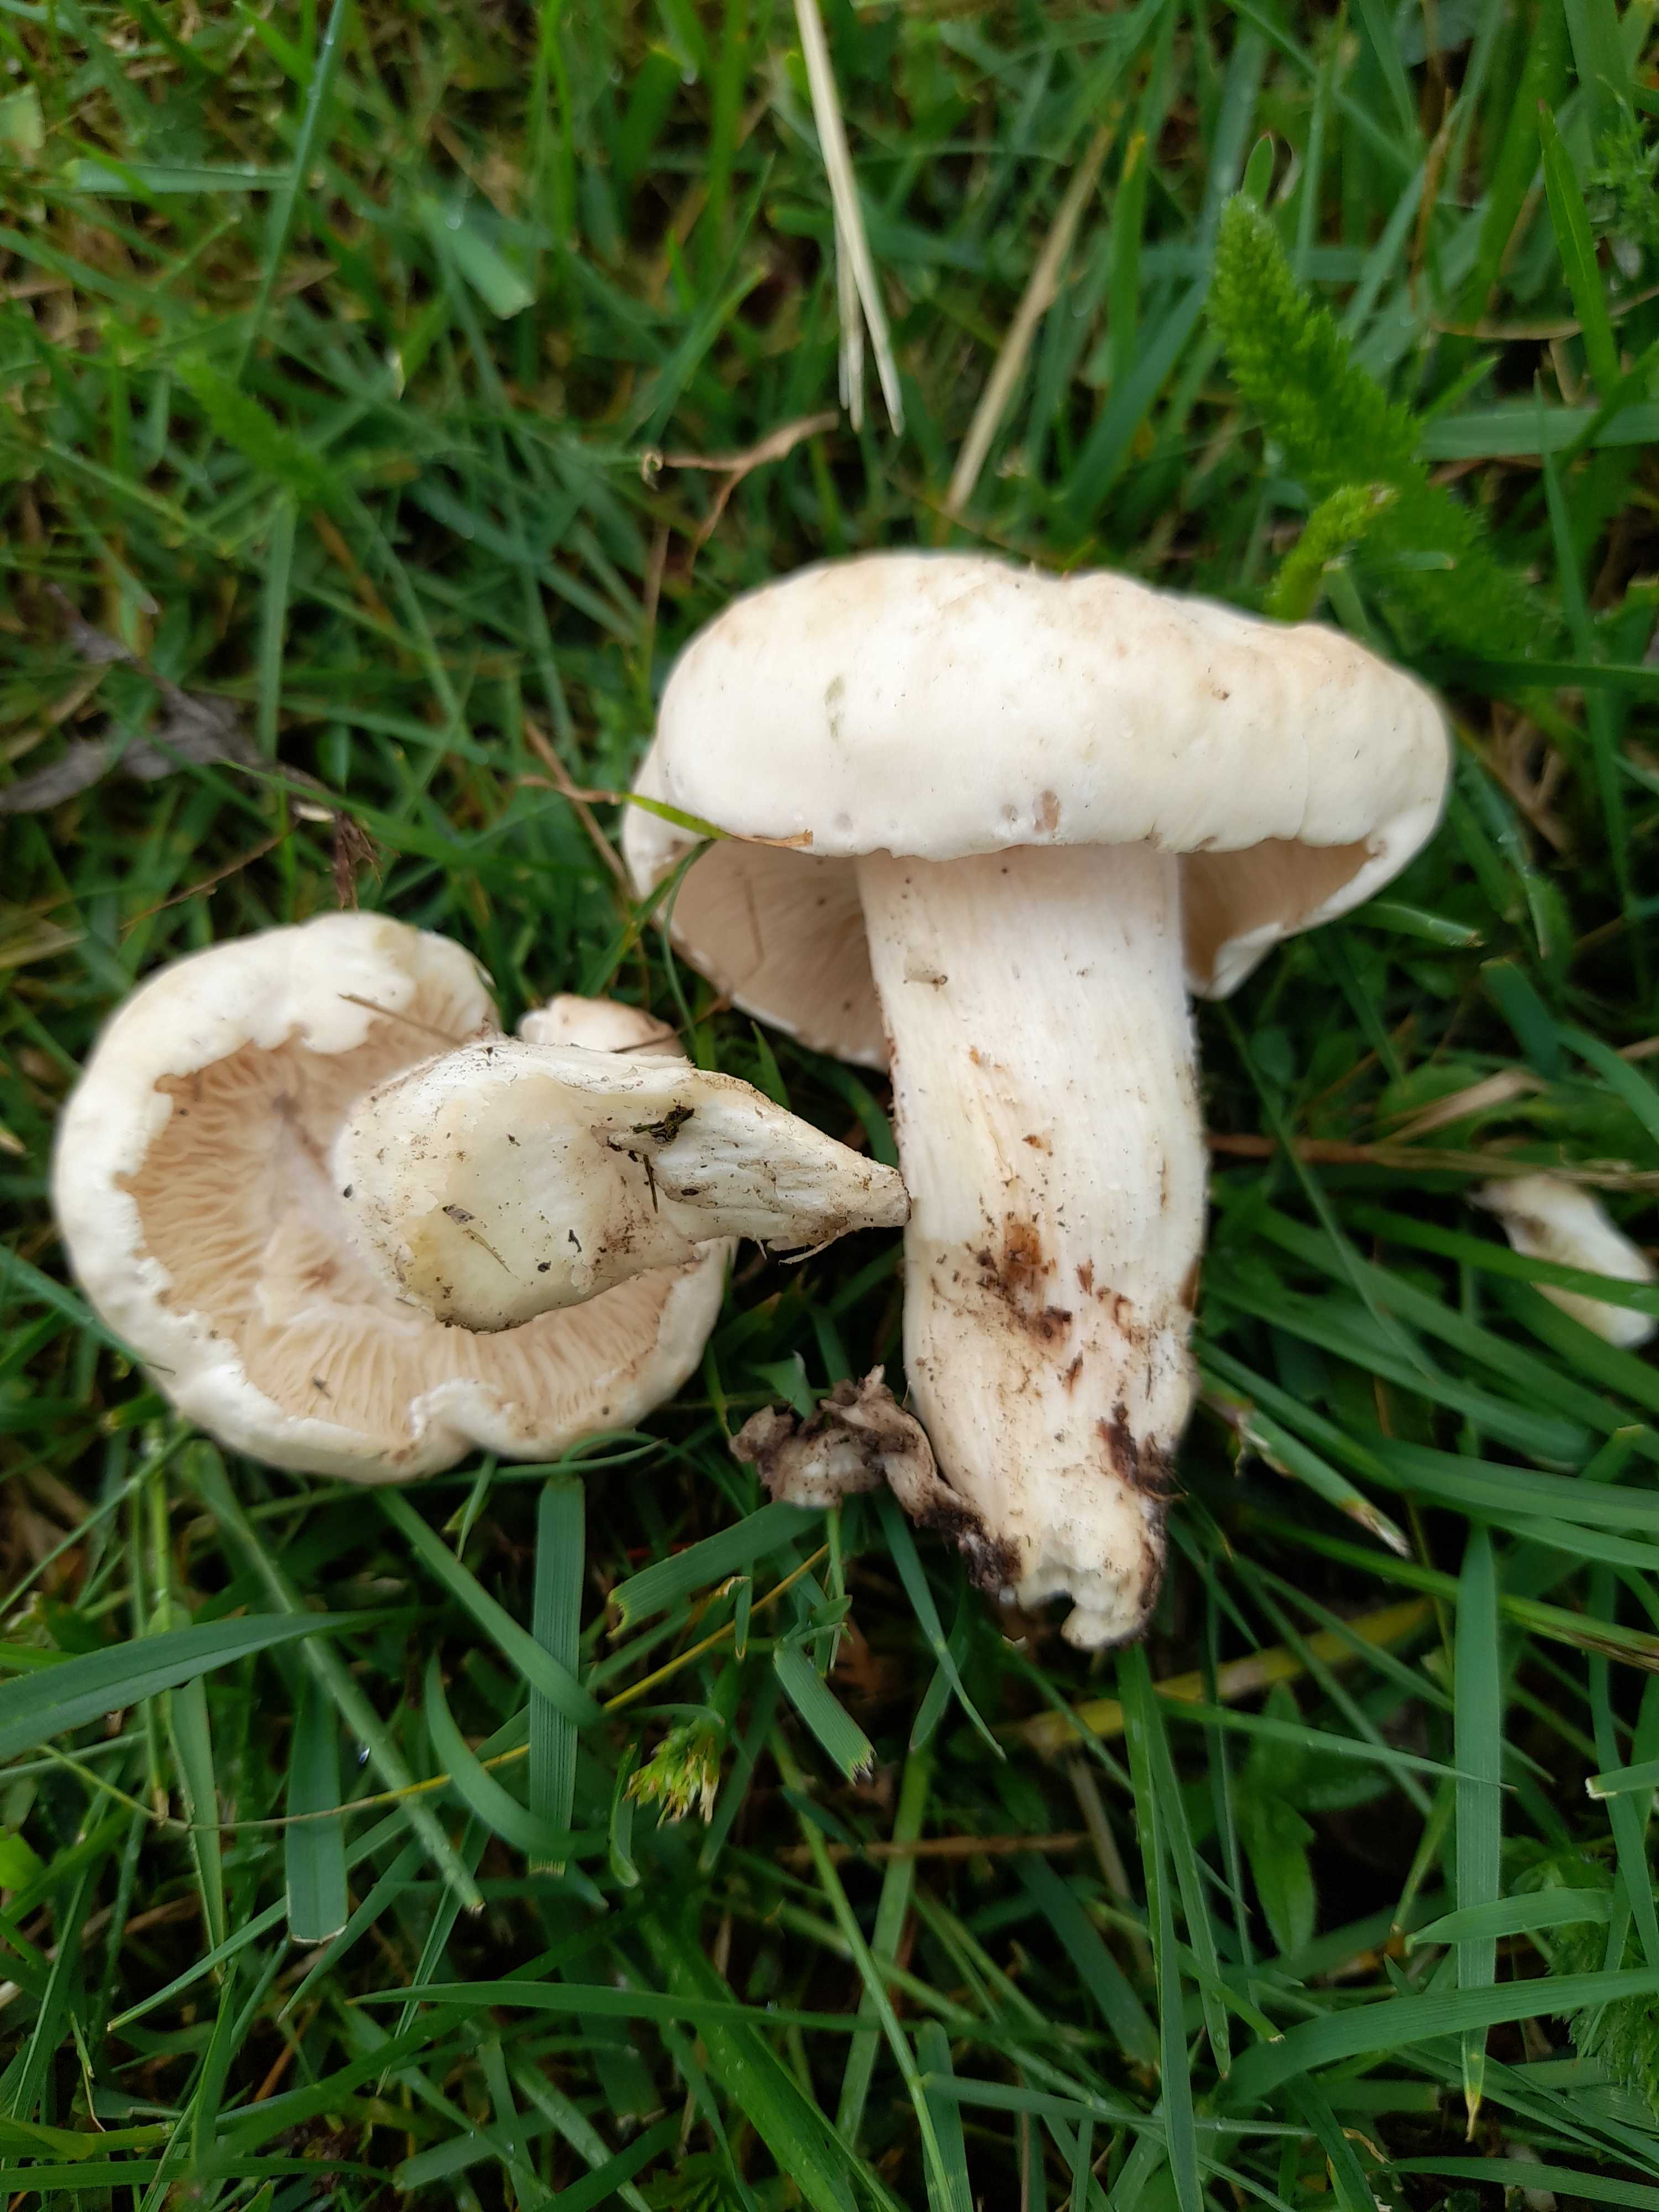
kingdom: Fungi
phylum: Basidiomycota
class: Agaricomycetes
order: Agaricales
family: Lyophyllaceae
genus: Calocybe
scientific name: Calocybe gambosa
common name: vårmusseron
